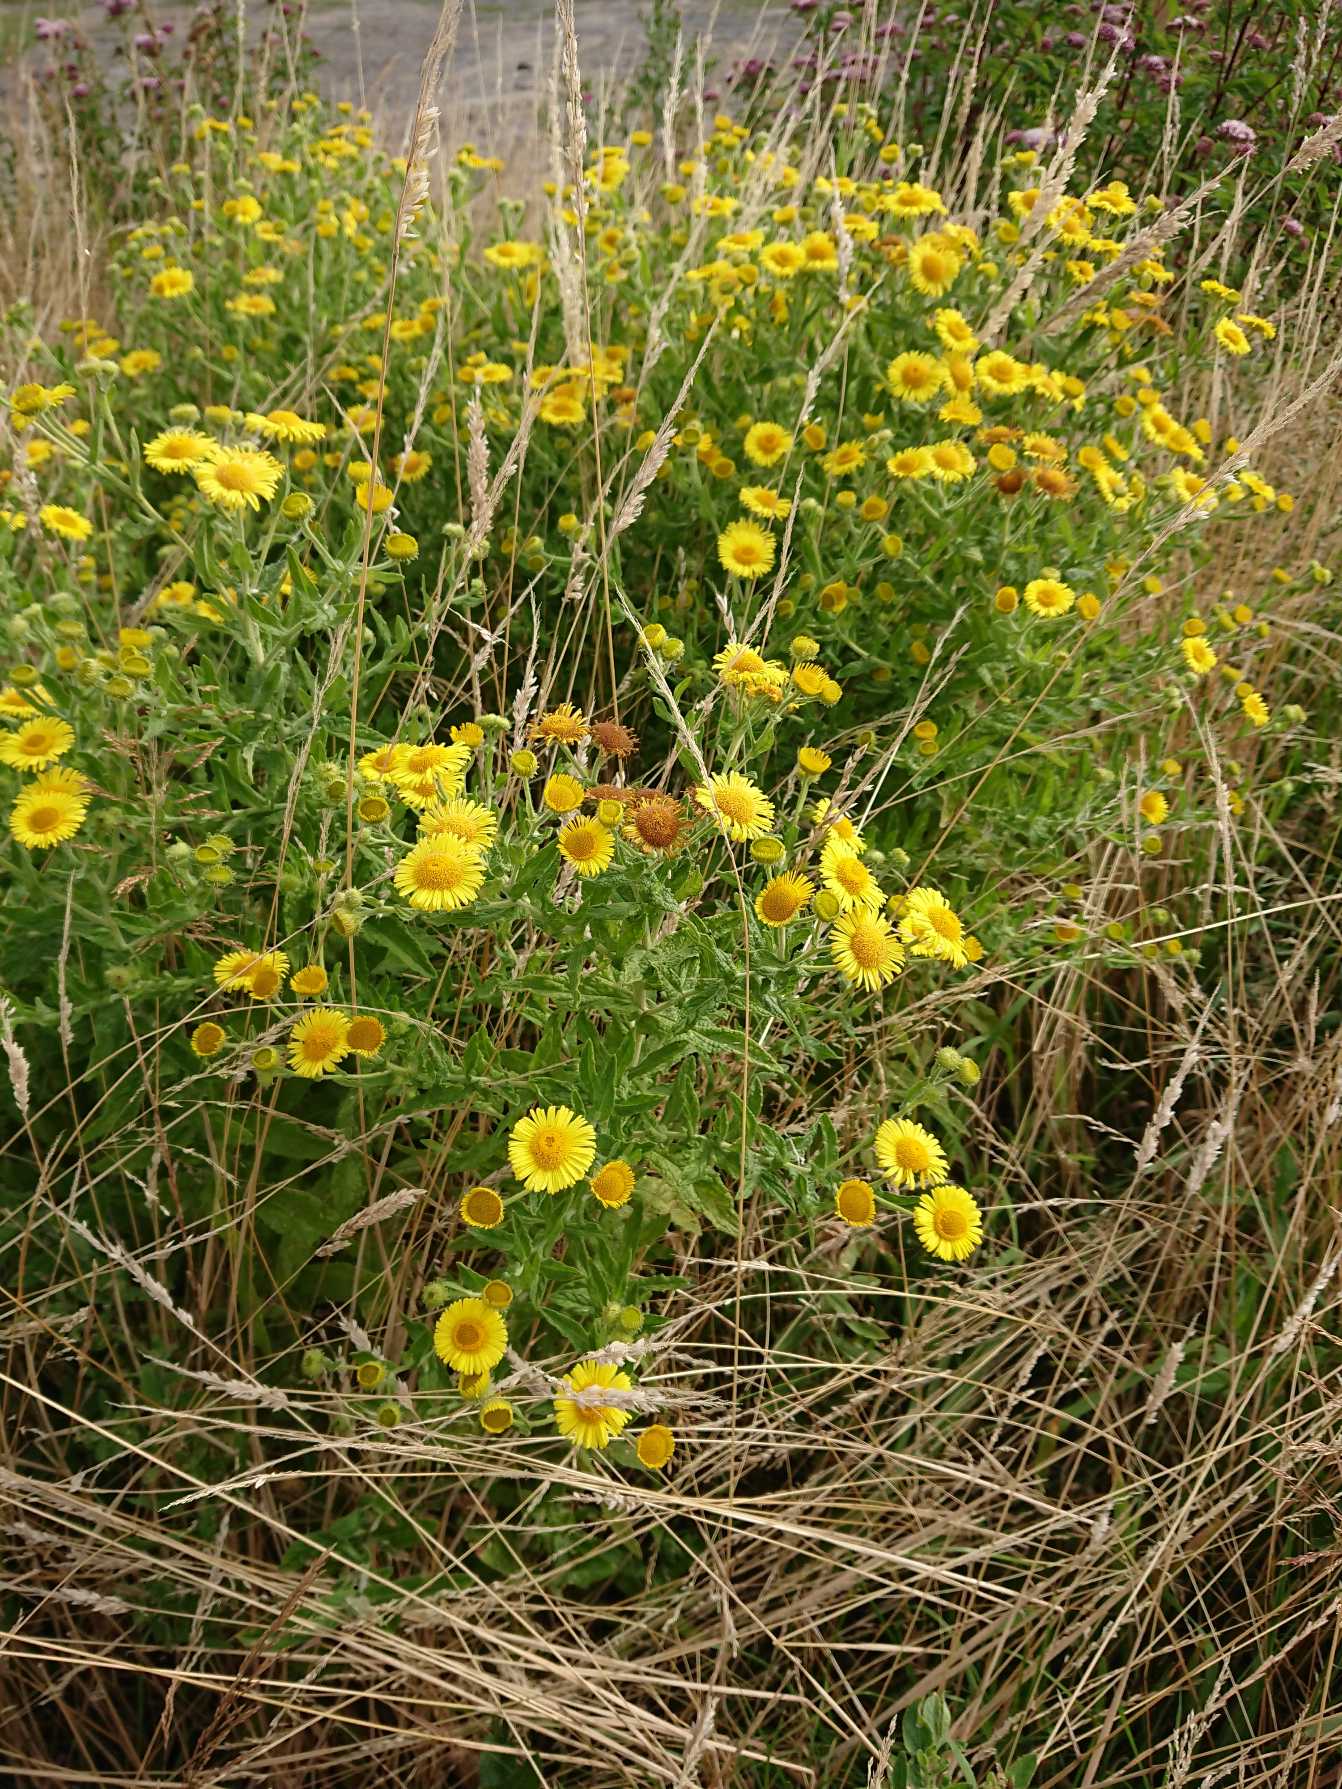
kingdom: Plantae
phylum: Tracheophyta
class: Magnoliopsida
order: Asterales
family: Asteraceae
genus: Pulicaria
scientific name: Pulicaria dysenterica
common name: Strand-loppeurt
